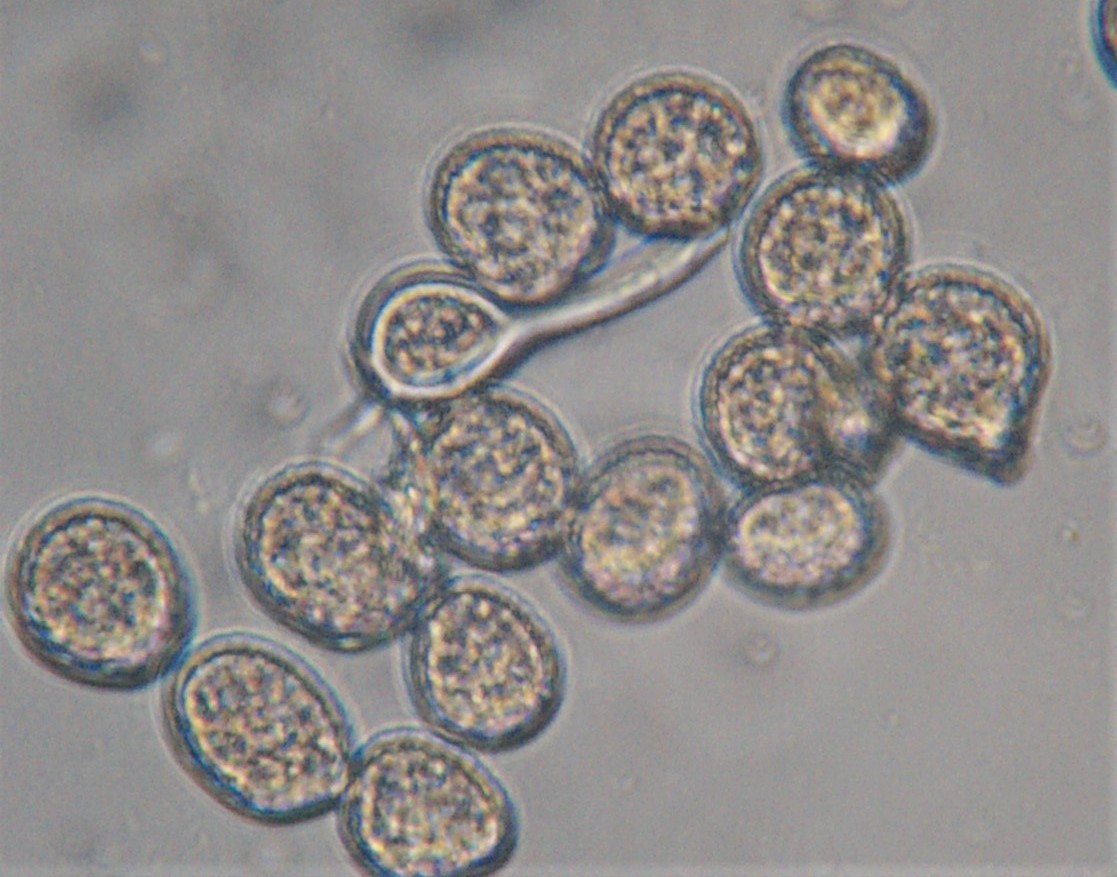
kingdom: Fungi
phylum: Basidiomycota
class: Pucciniomycetes
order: Pucciniales
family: Melampsoraceae
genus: Melampsora
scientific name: Melampsora epitea
